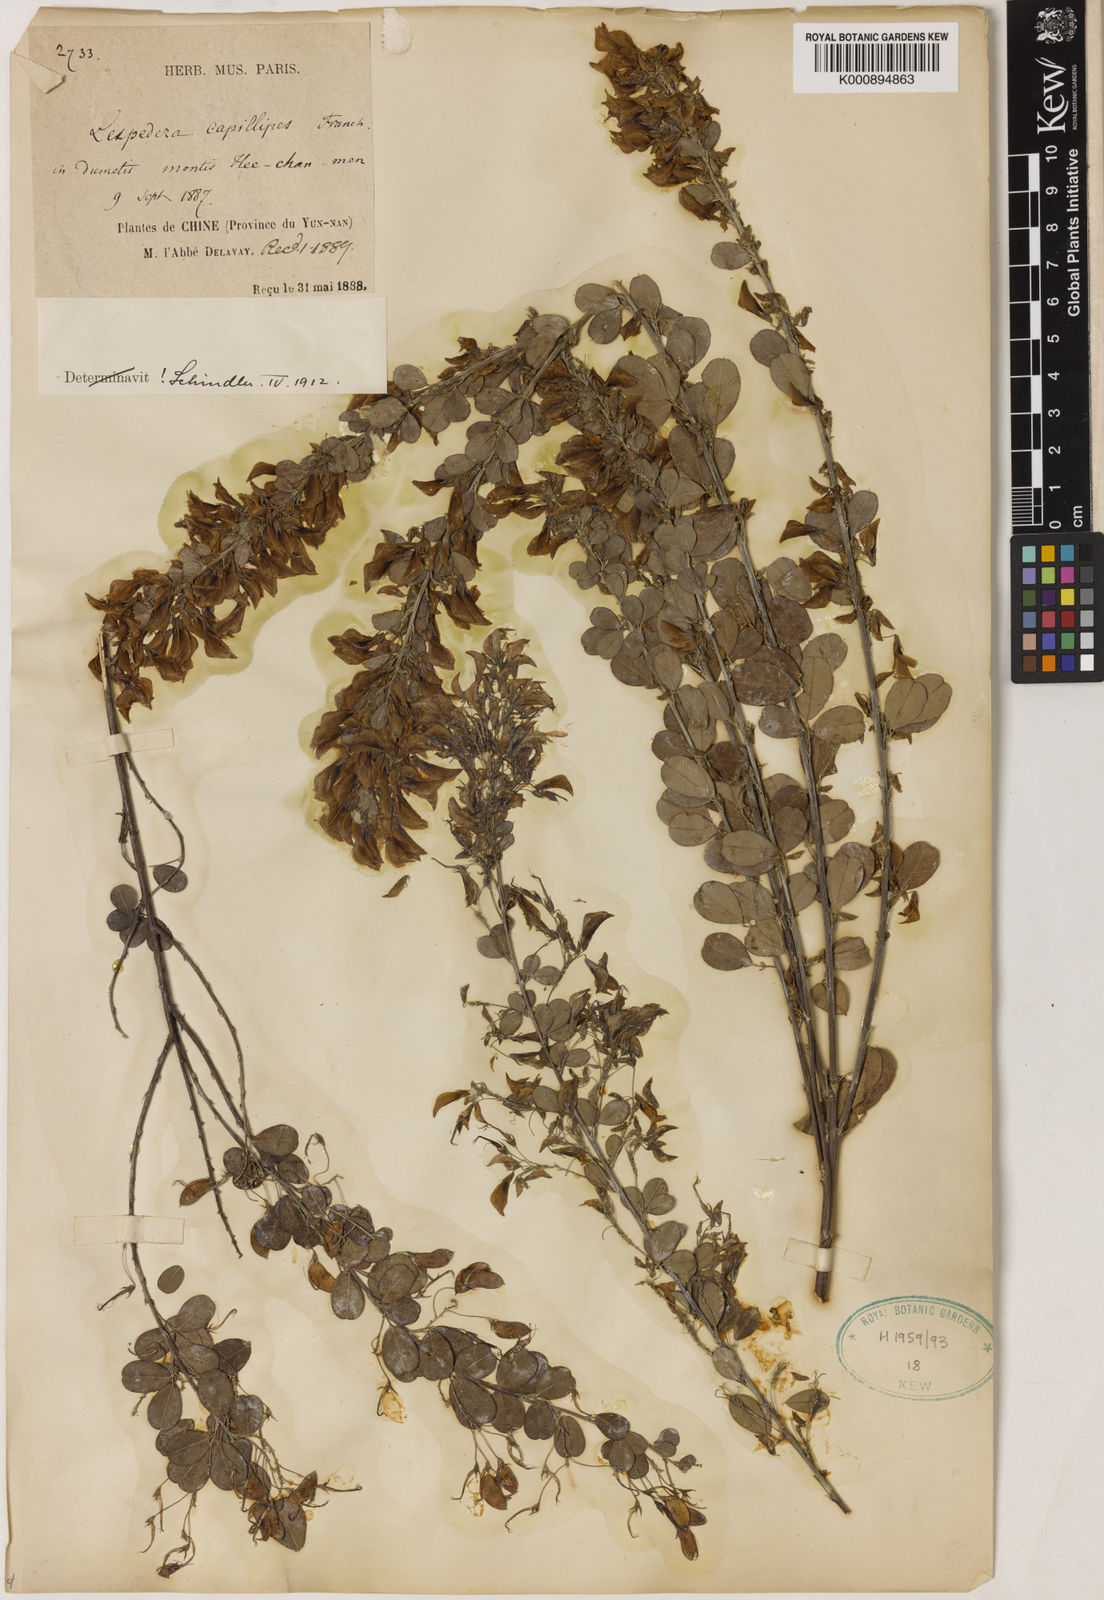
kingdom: Plantae
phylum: Tracheophyta
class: Magnoliopsida
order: Fabales
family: Fabaceae
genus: Campylotropis
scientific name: Campylotropis capillipes
